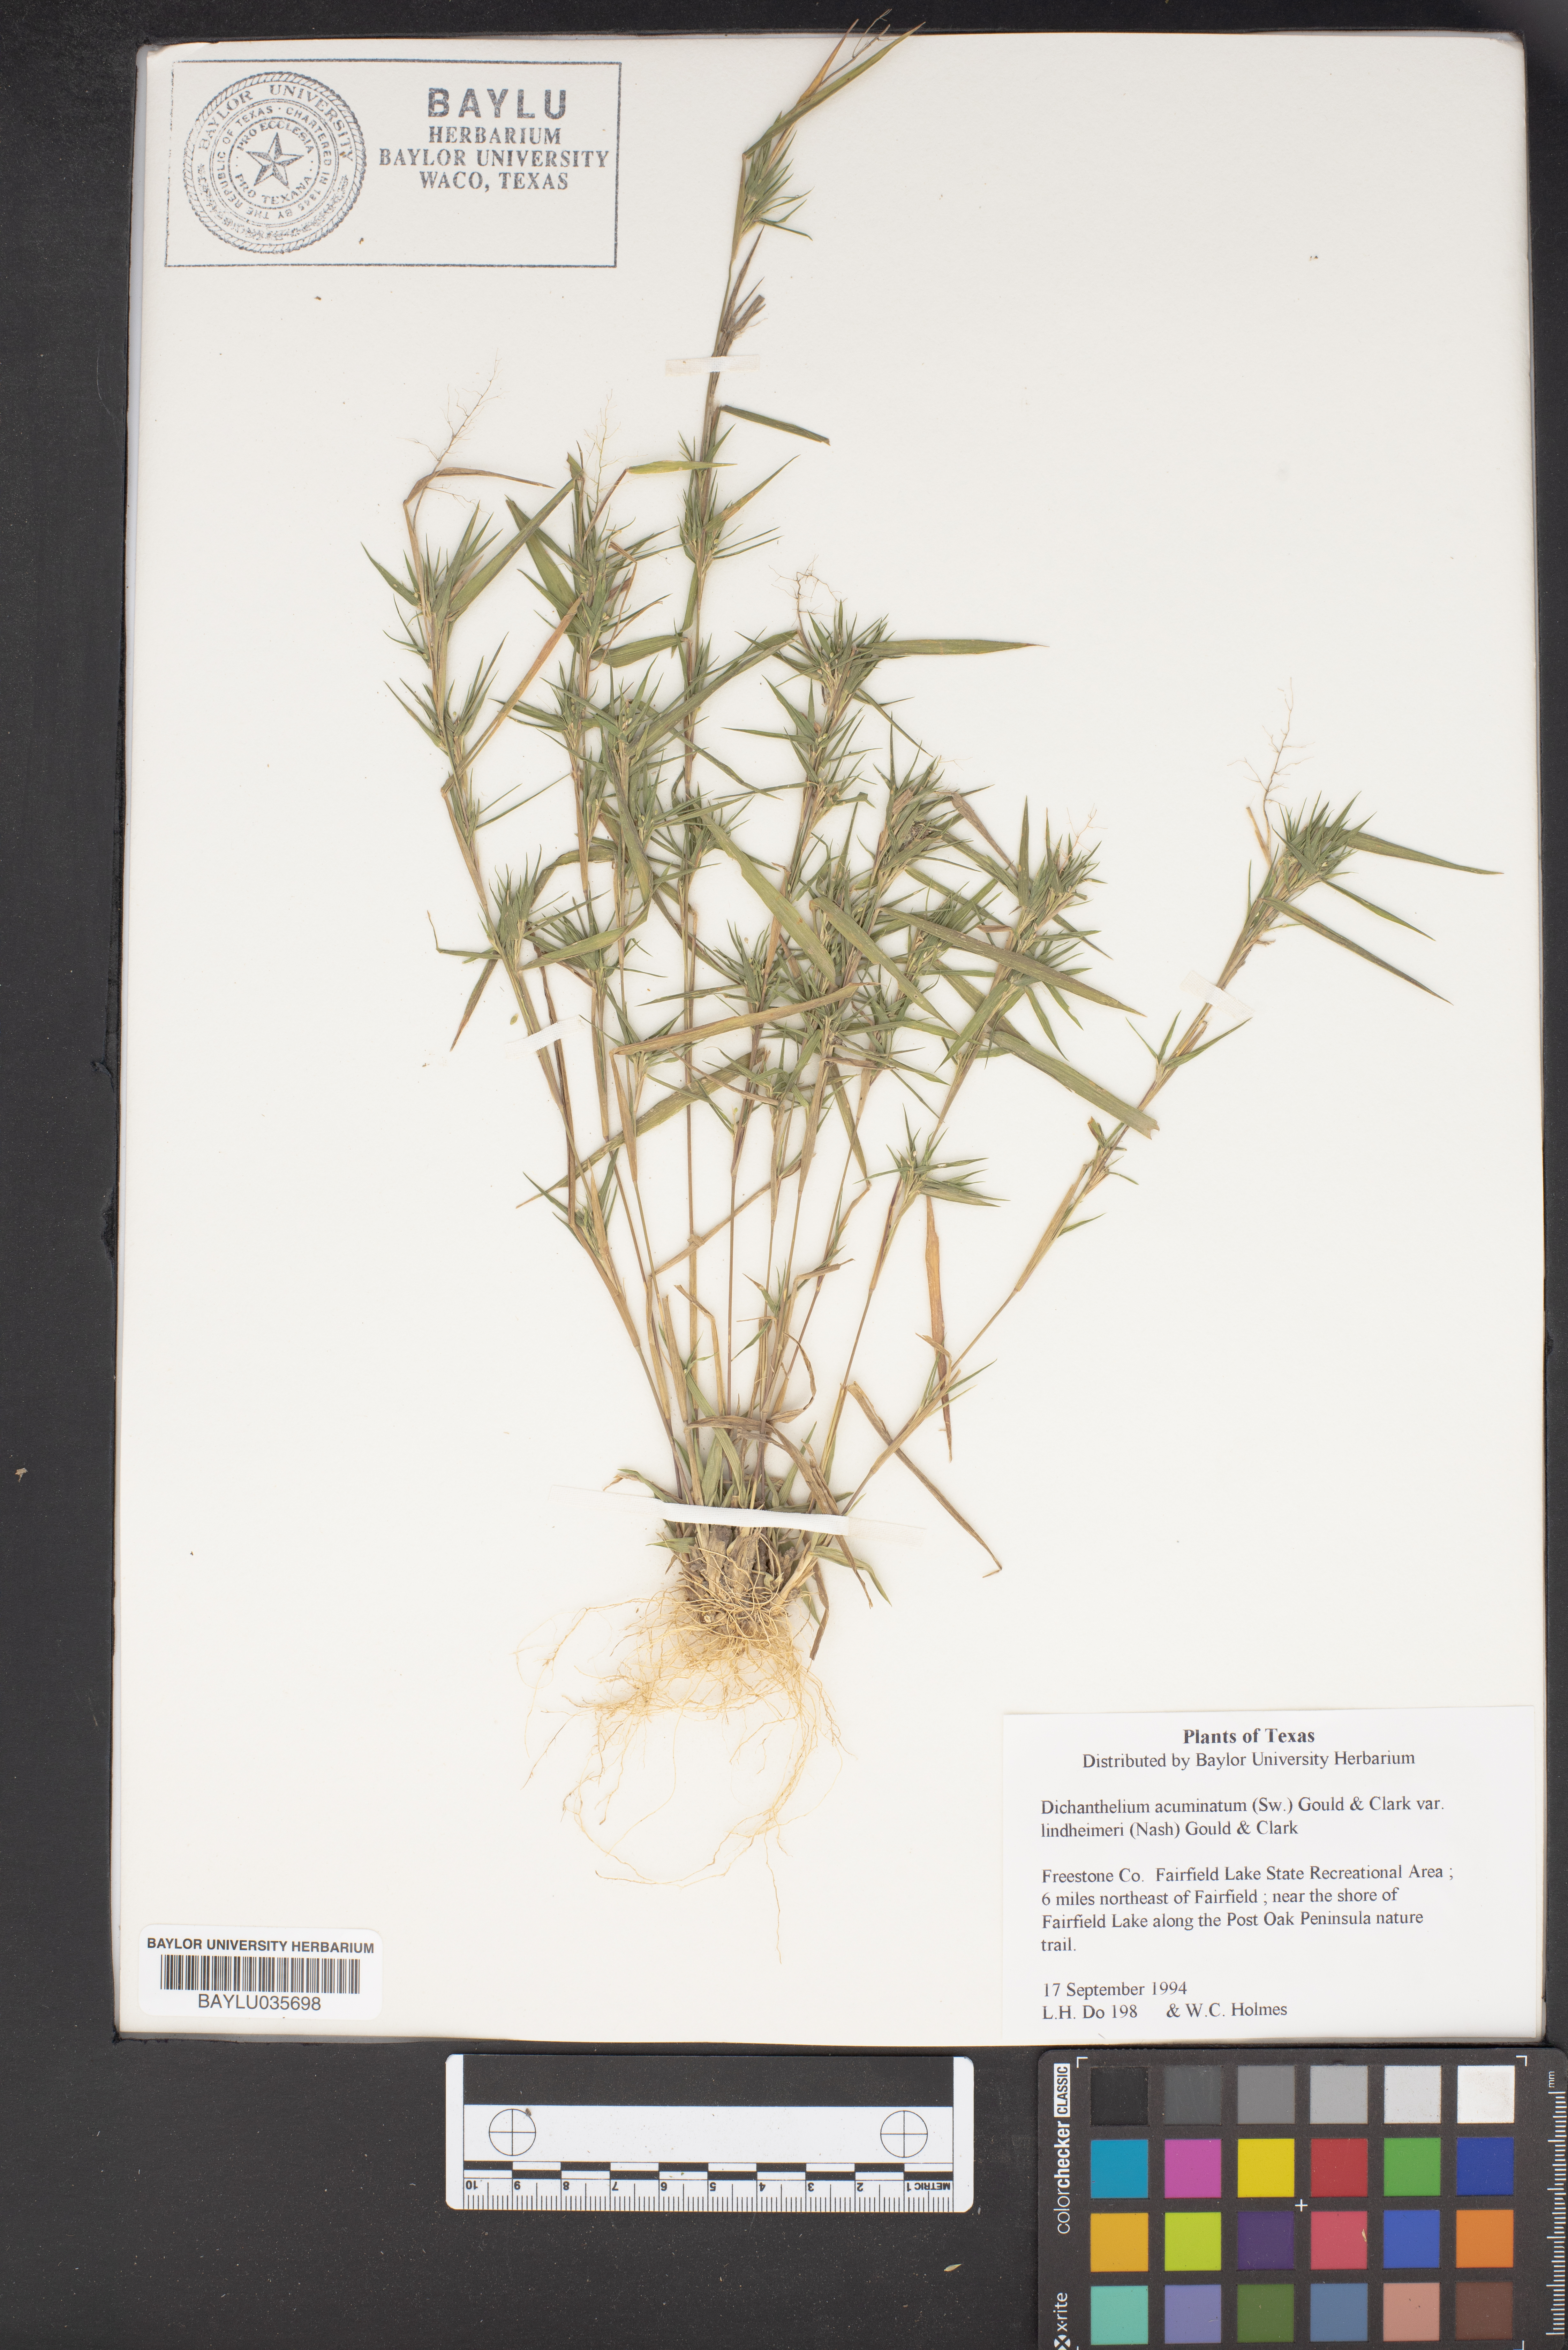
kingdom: Plantae
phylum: Tracheophyta
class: Liliopsida
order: Poales
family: Poaceae
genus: Dichanthelium
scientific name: Dichanthelium acuminatum
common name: Hairy panic grass
